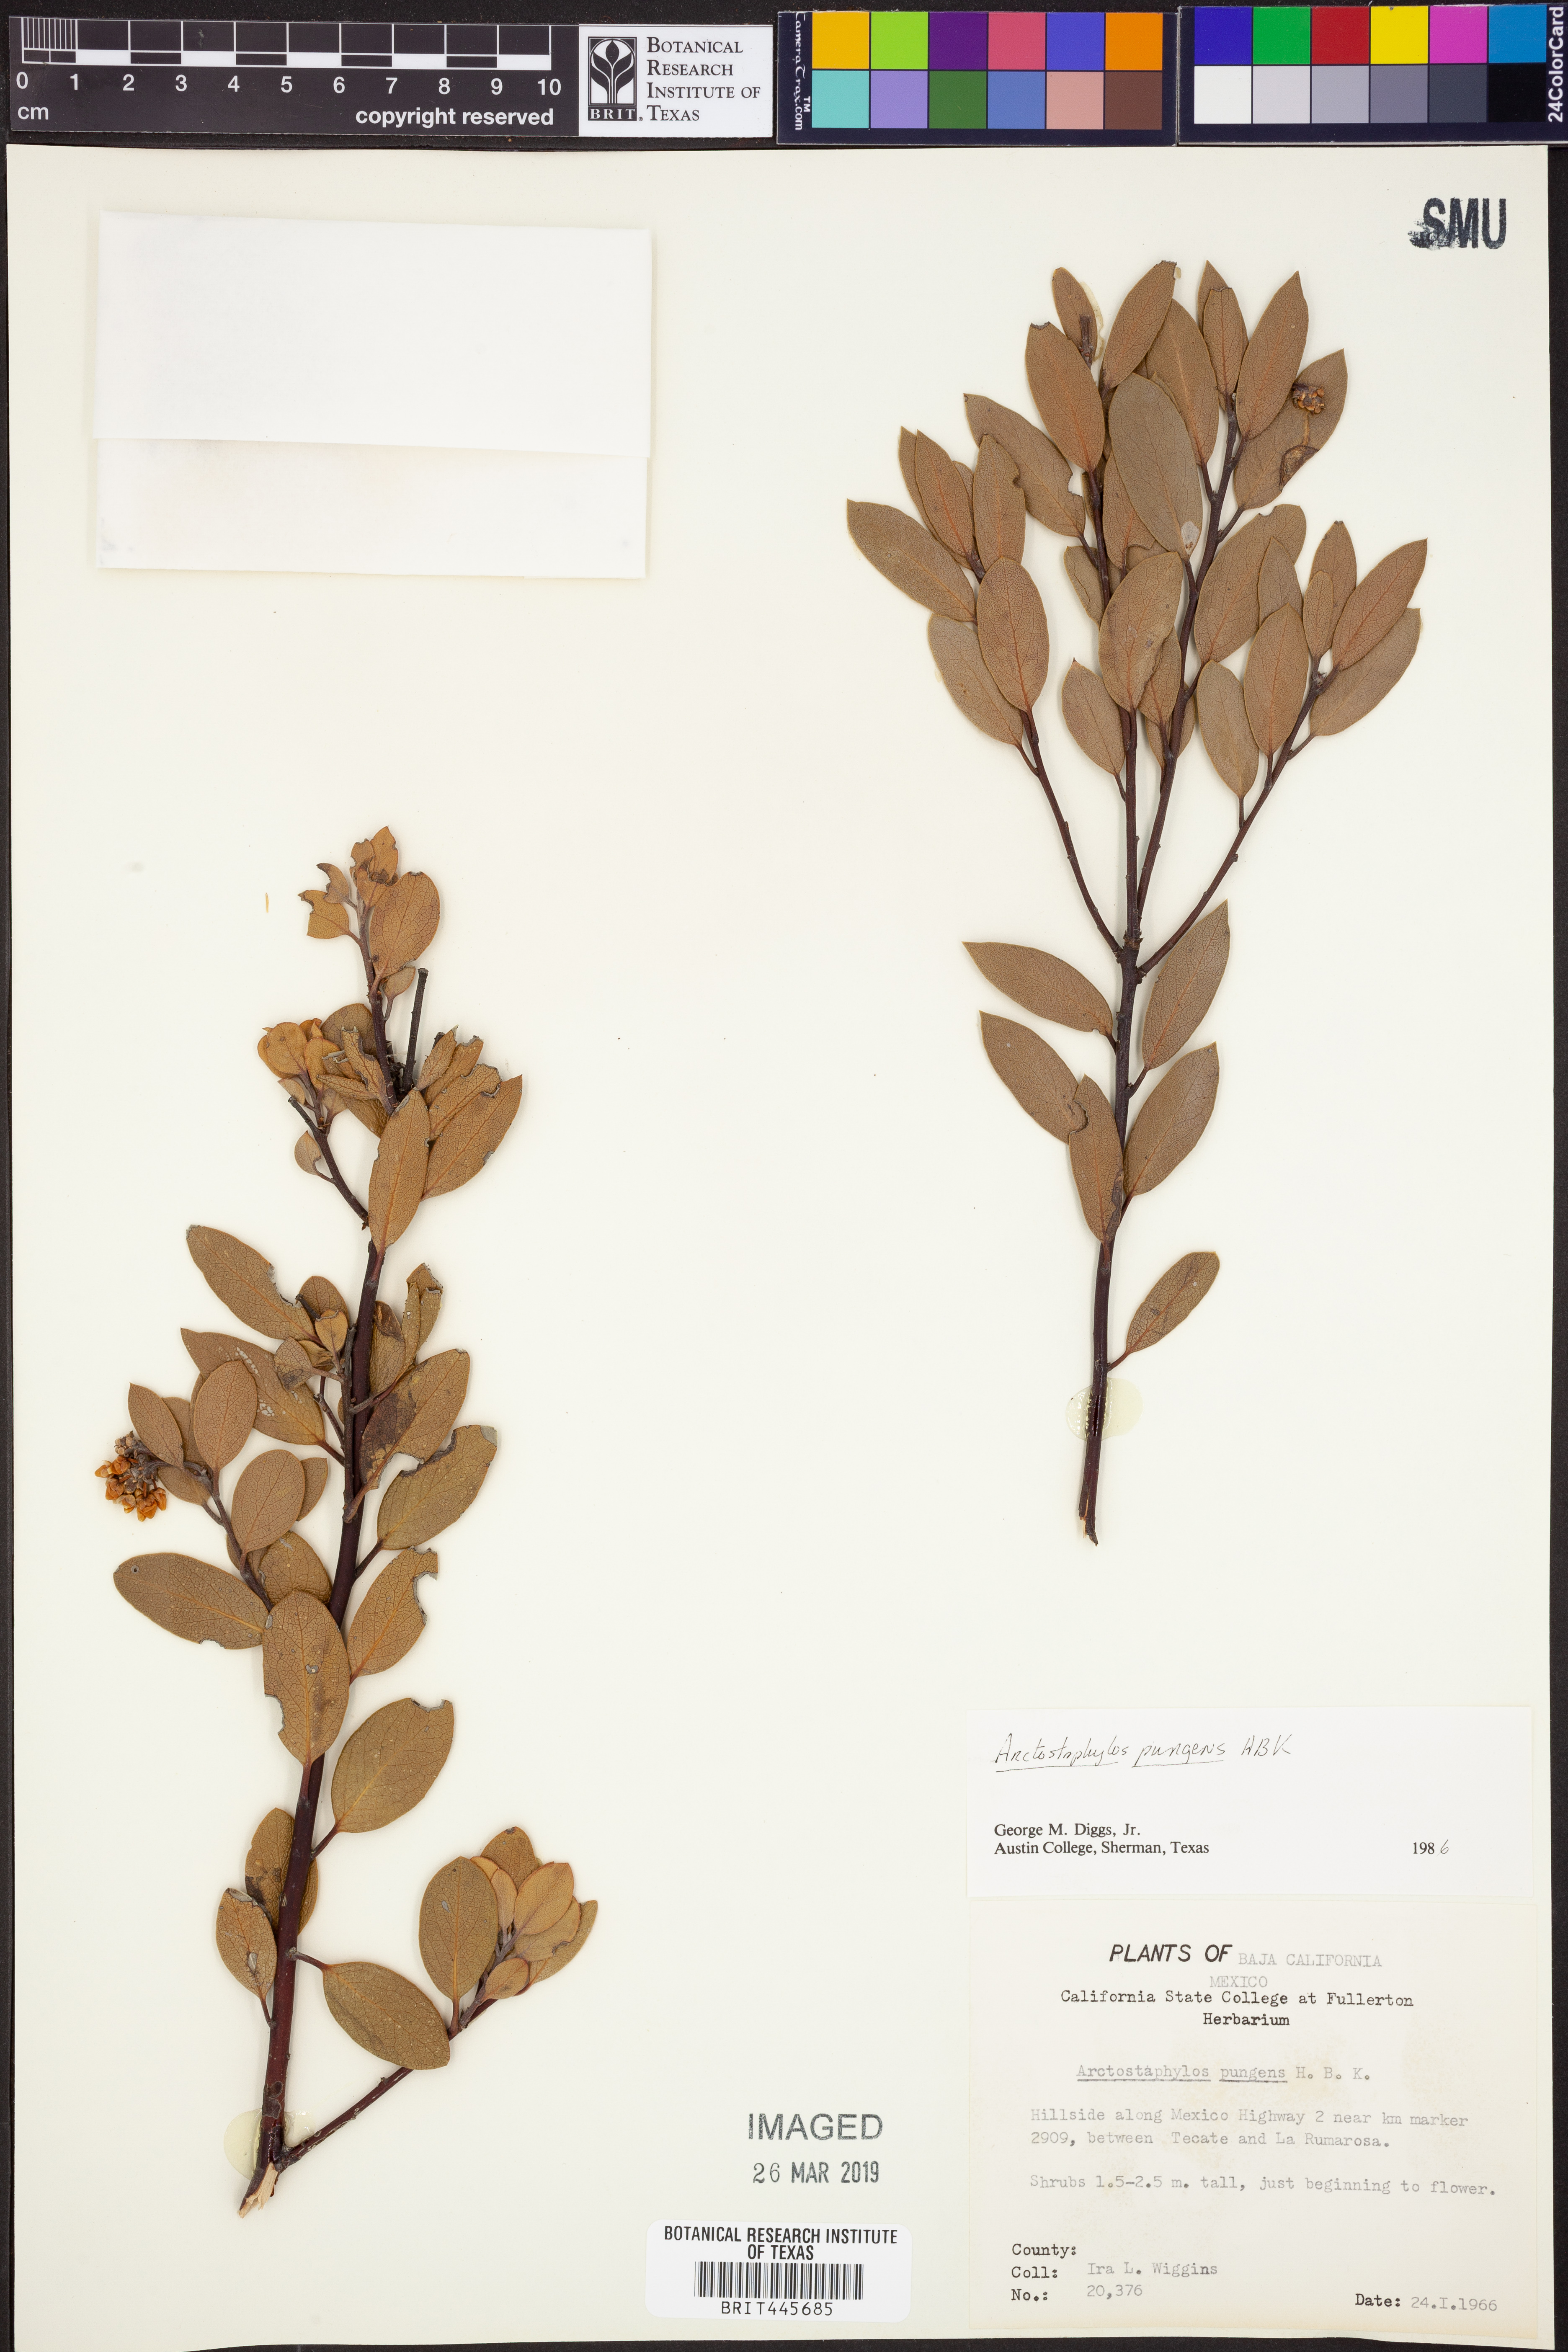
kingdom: Plantae
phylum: Tracheophyta
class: Magnoliopsida
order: Ericales
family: Ericaceae
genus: Arctostaphylos
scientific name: Arctostaphylos pungens
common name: Mexican manzanita
